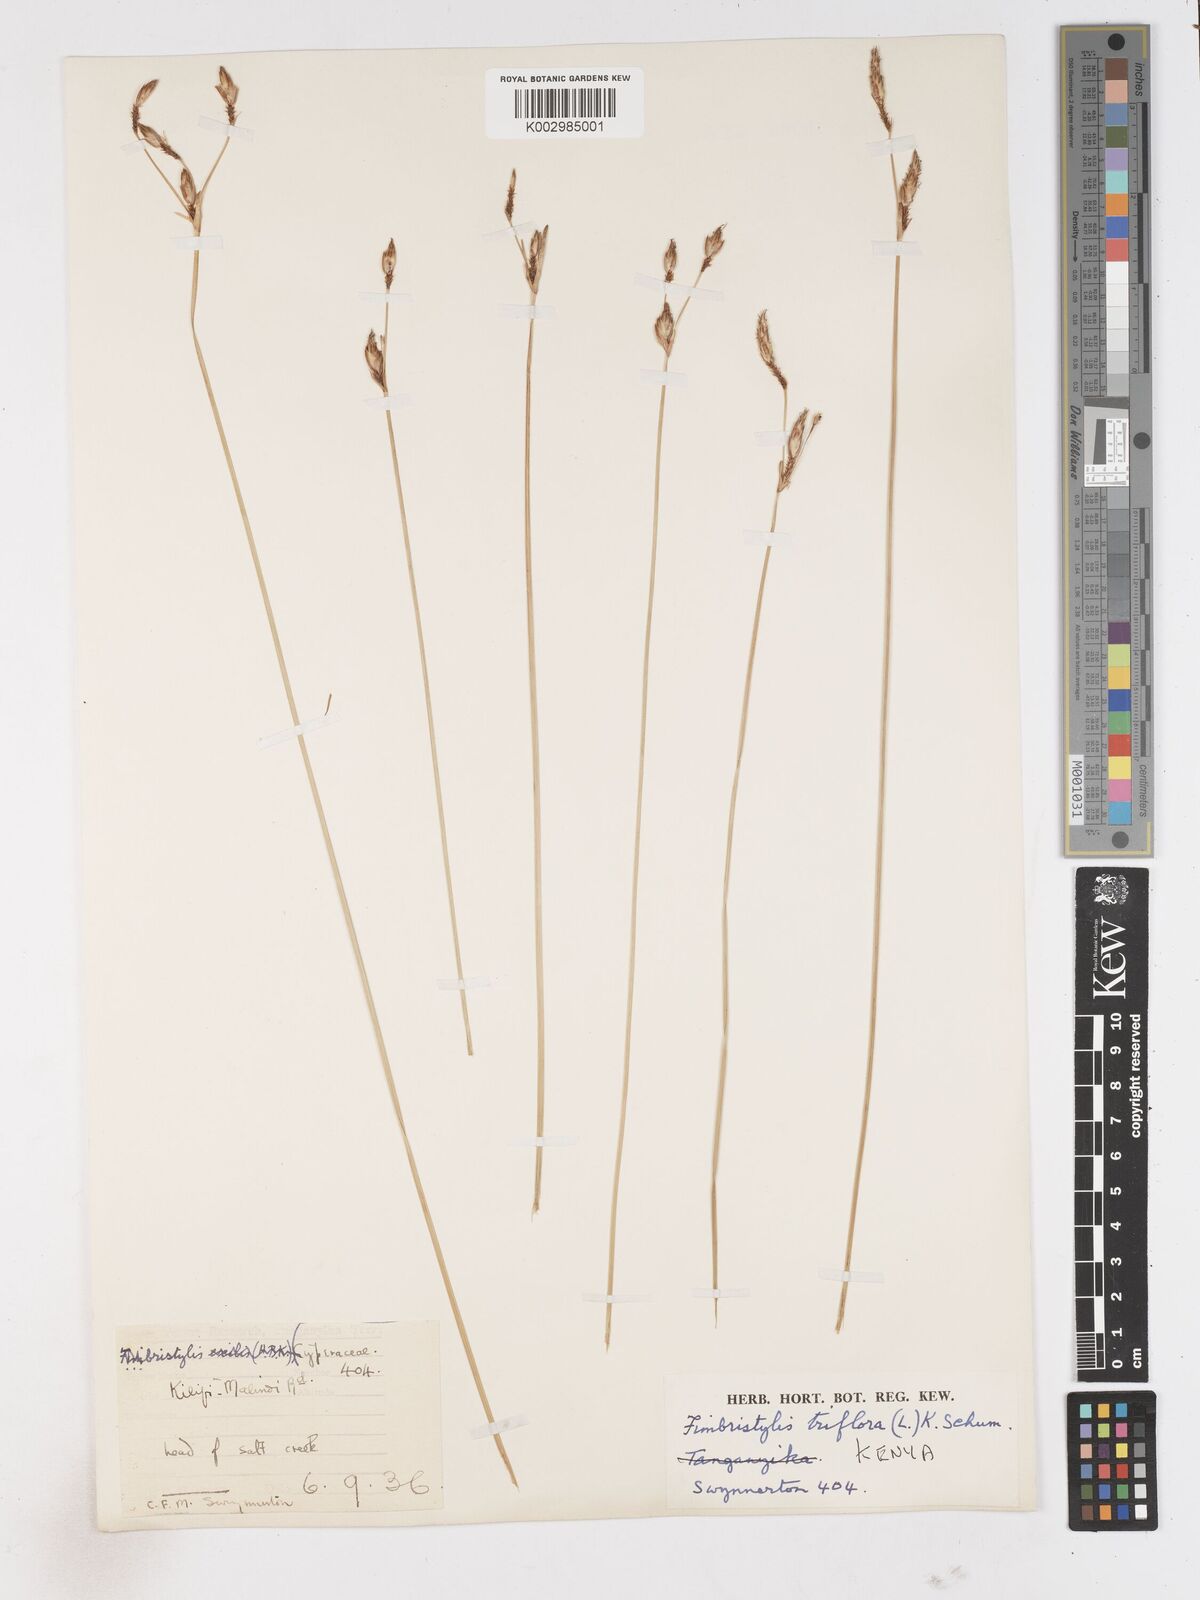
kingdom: Plantae
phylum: Tracheophyta
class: Liliopsida
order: Poales
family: Cyperaceae
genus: Abildgaardia
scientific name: Abildgaardia triflora
